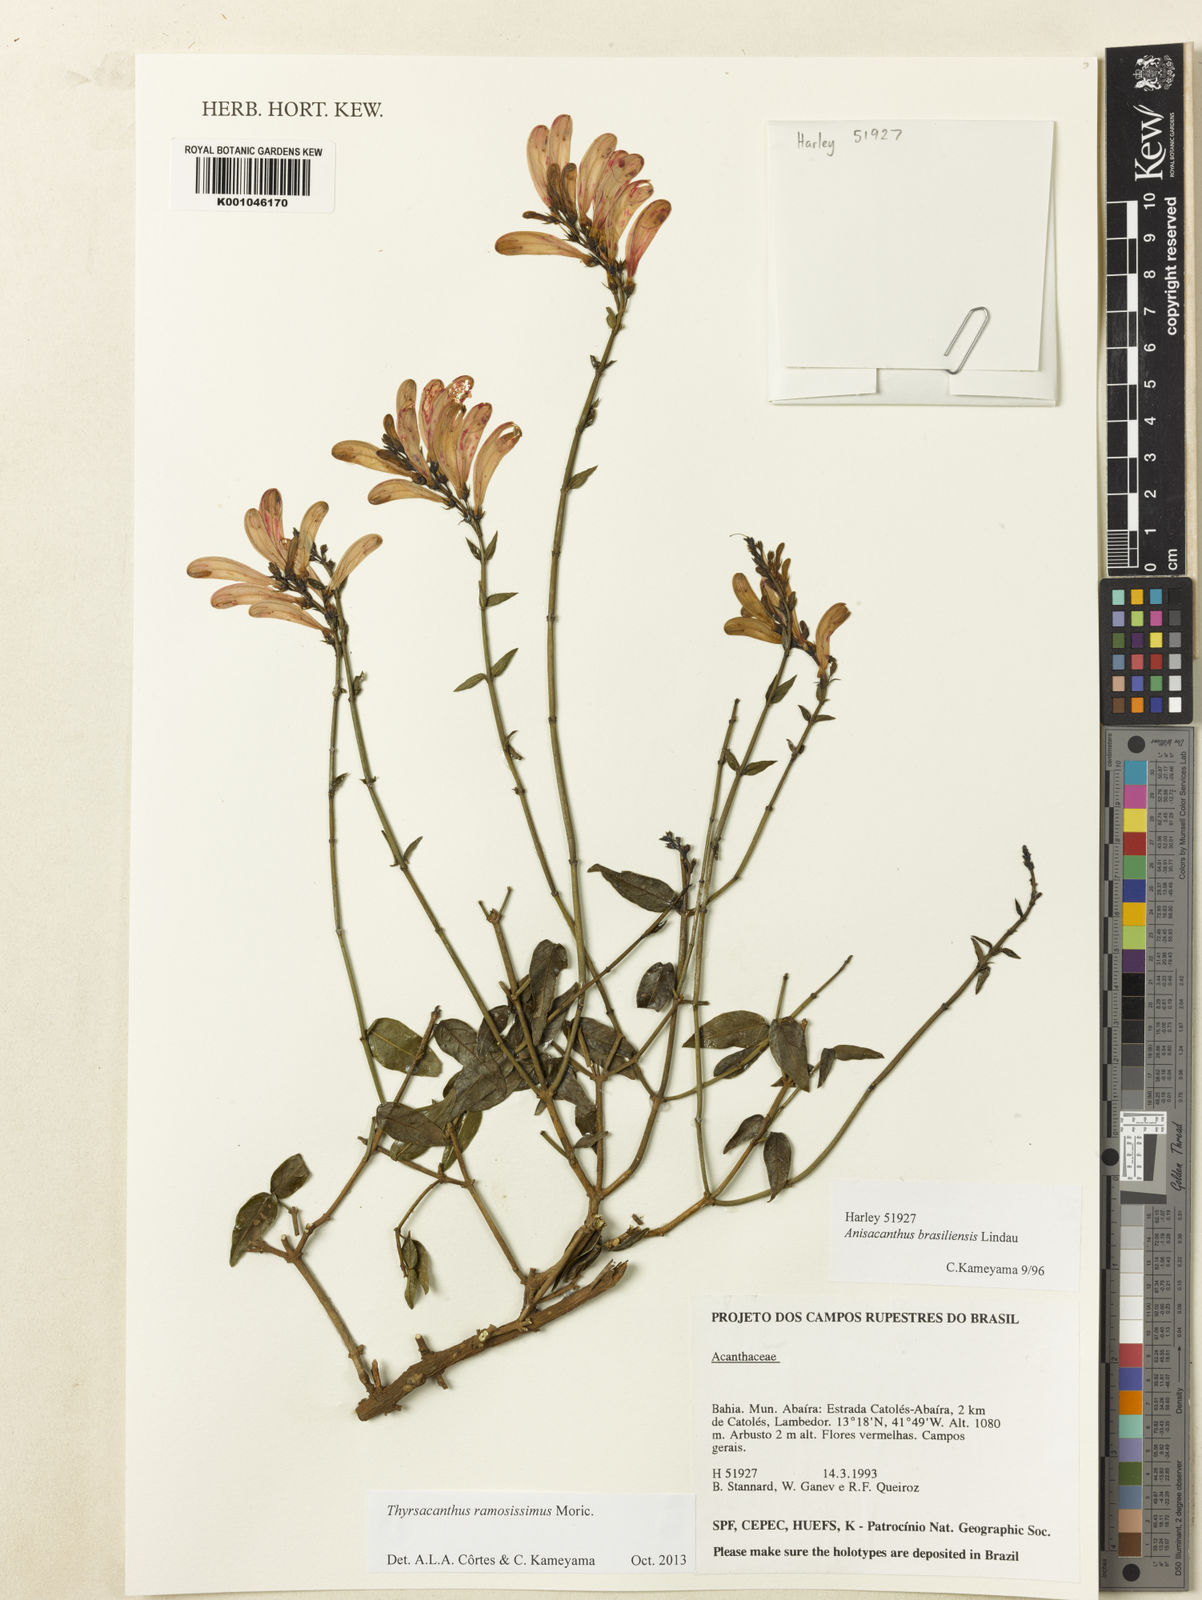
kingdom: Plantae
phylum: Tracheophyta
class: Magnoliopsida
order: Lamiales
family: Acanthaceae
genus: Thyrsacanthus
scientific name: Thyrsacanthus ramosissimus
